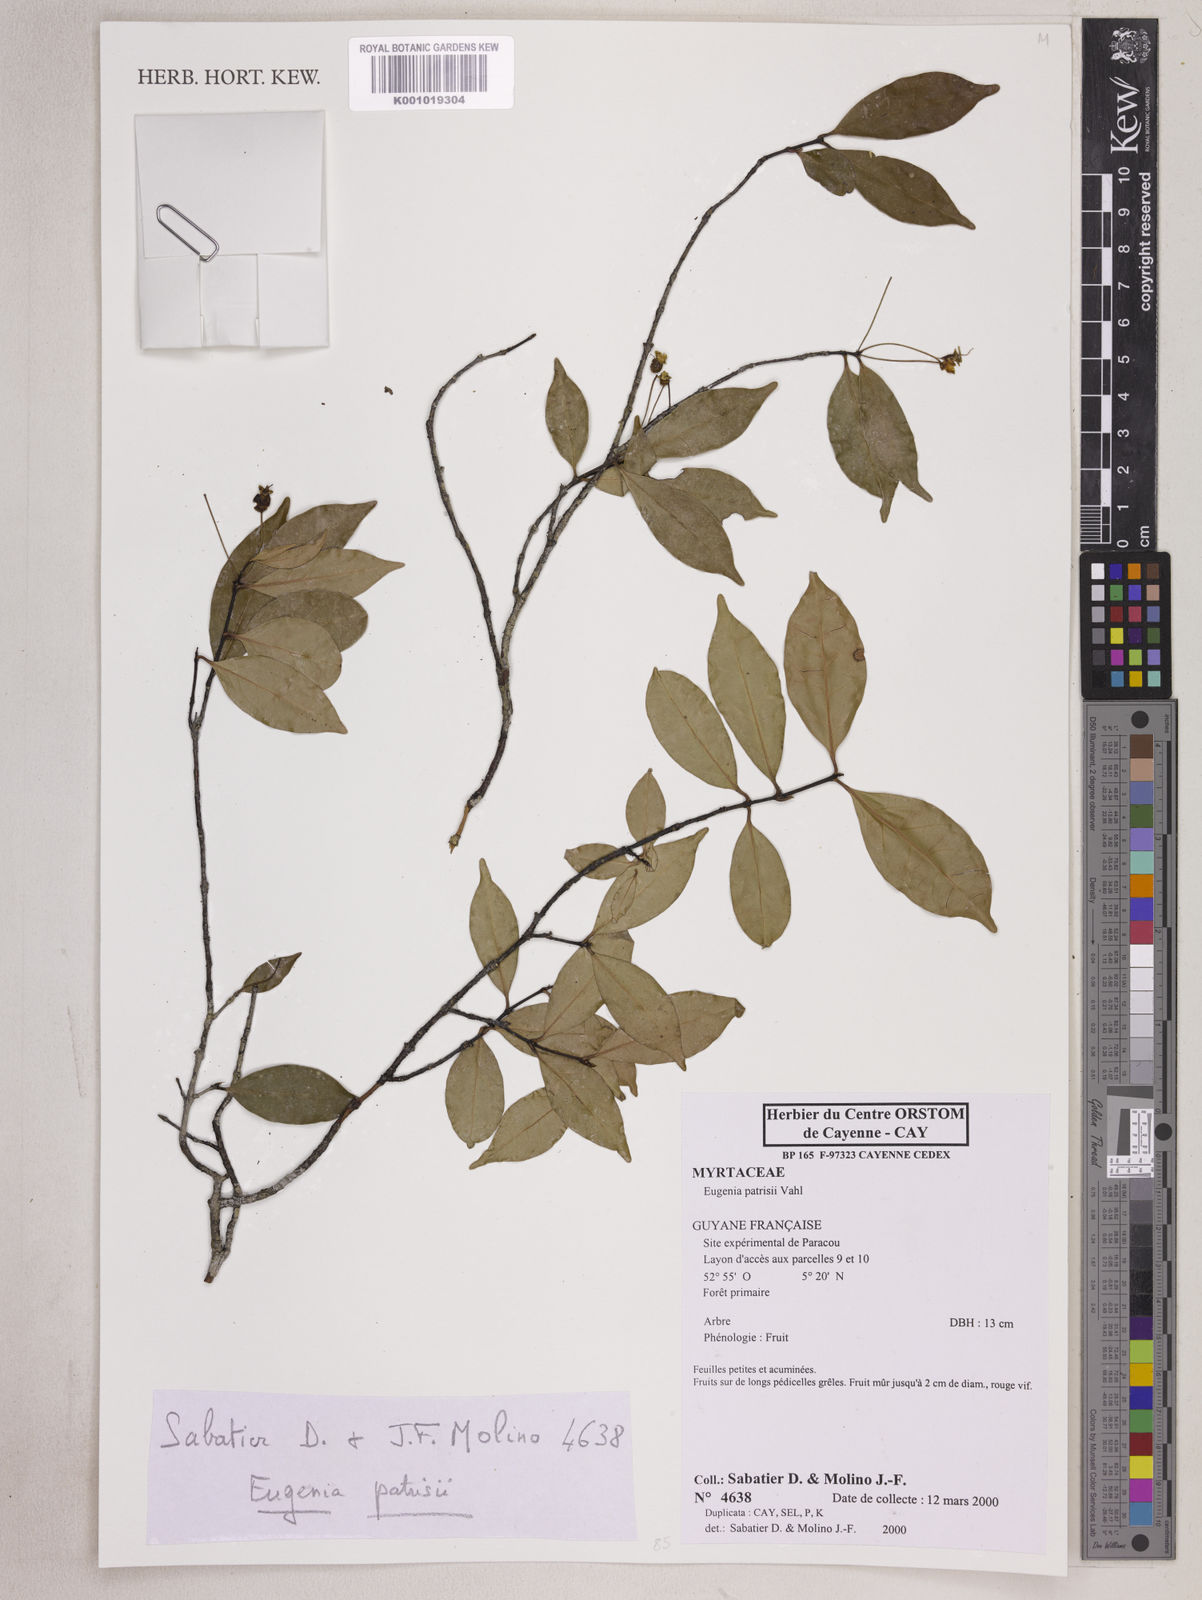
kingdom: Plantae
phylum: Tracheophyta
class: Magnoliopsida
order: Myrtales
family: Myrtaceae
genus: Eugenia
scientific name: Eugenia patrisii
